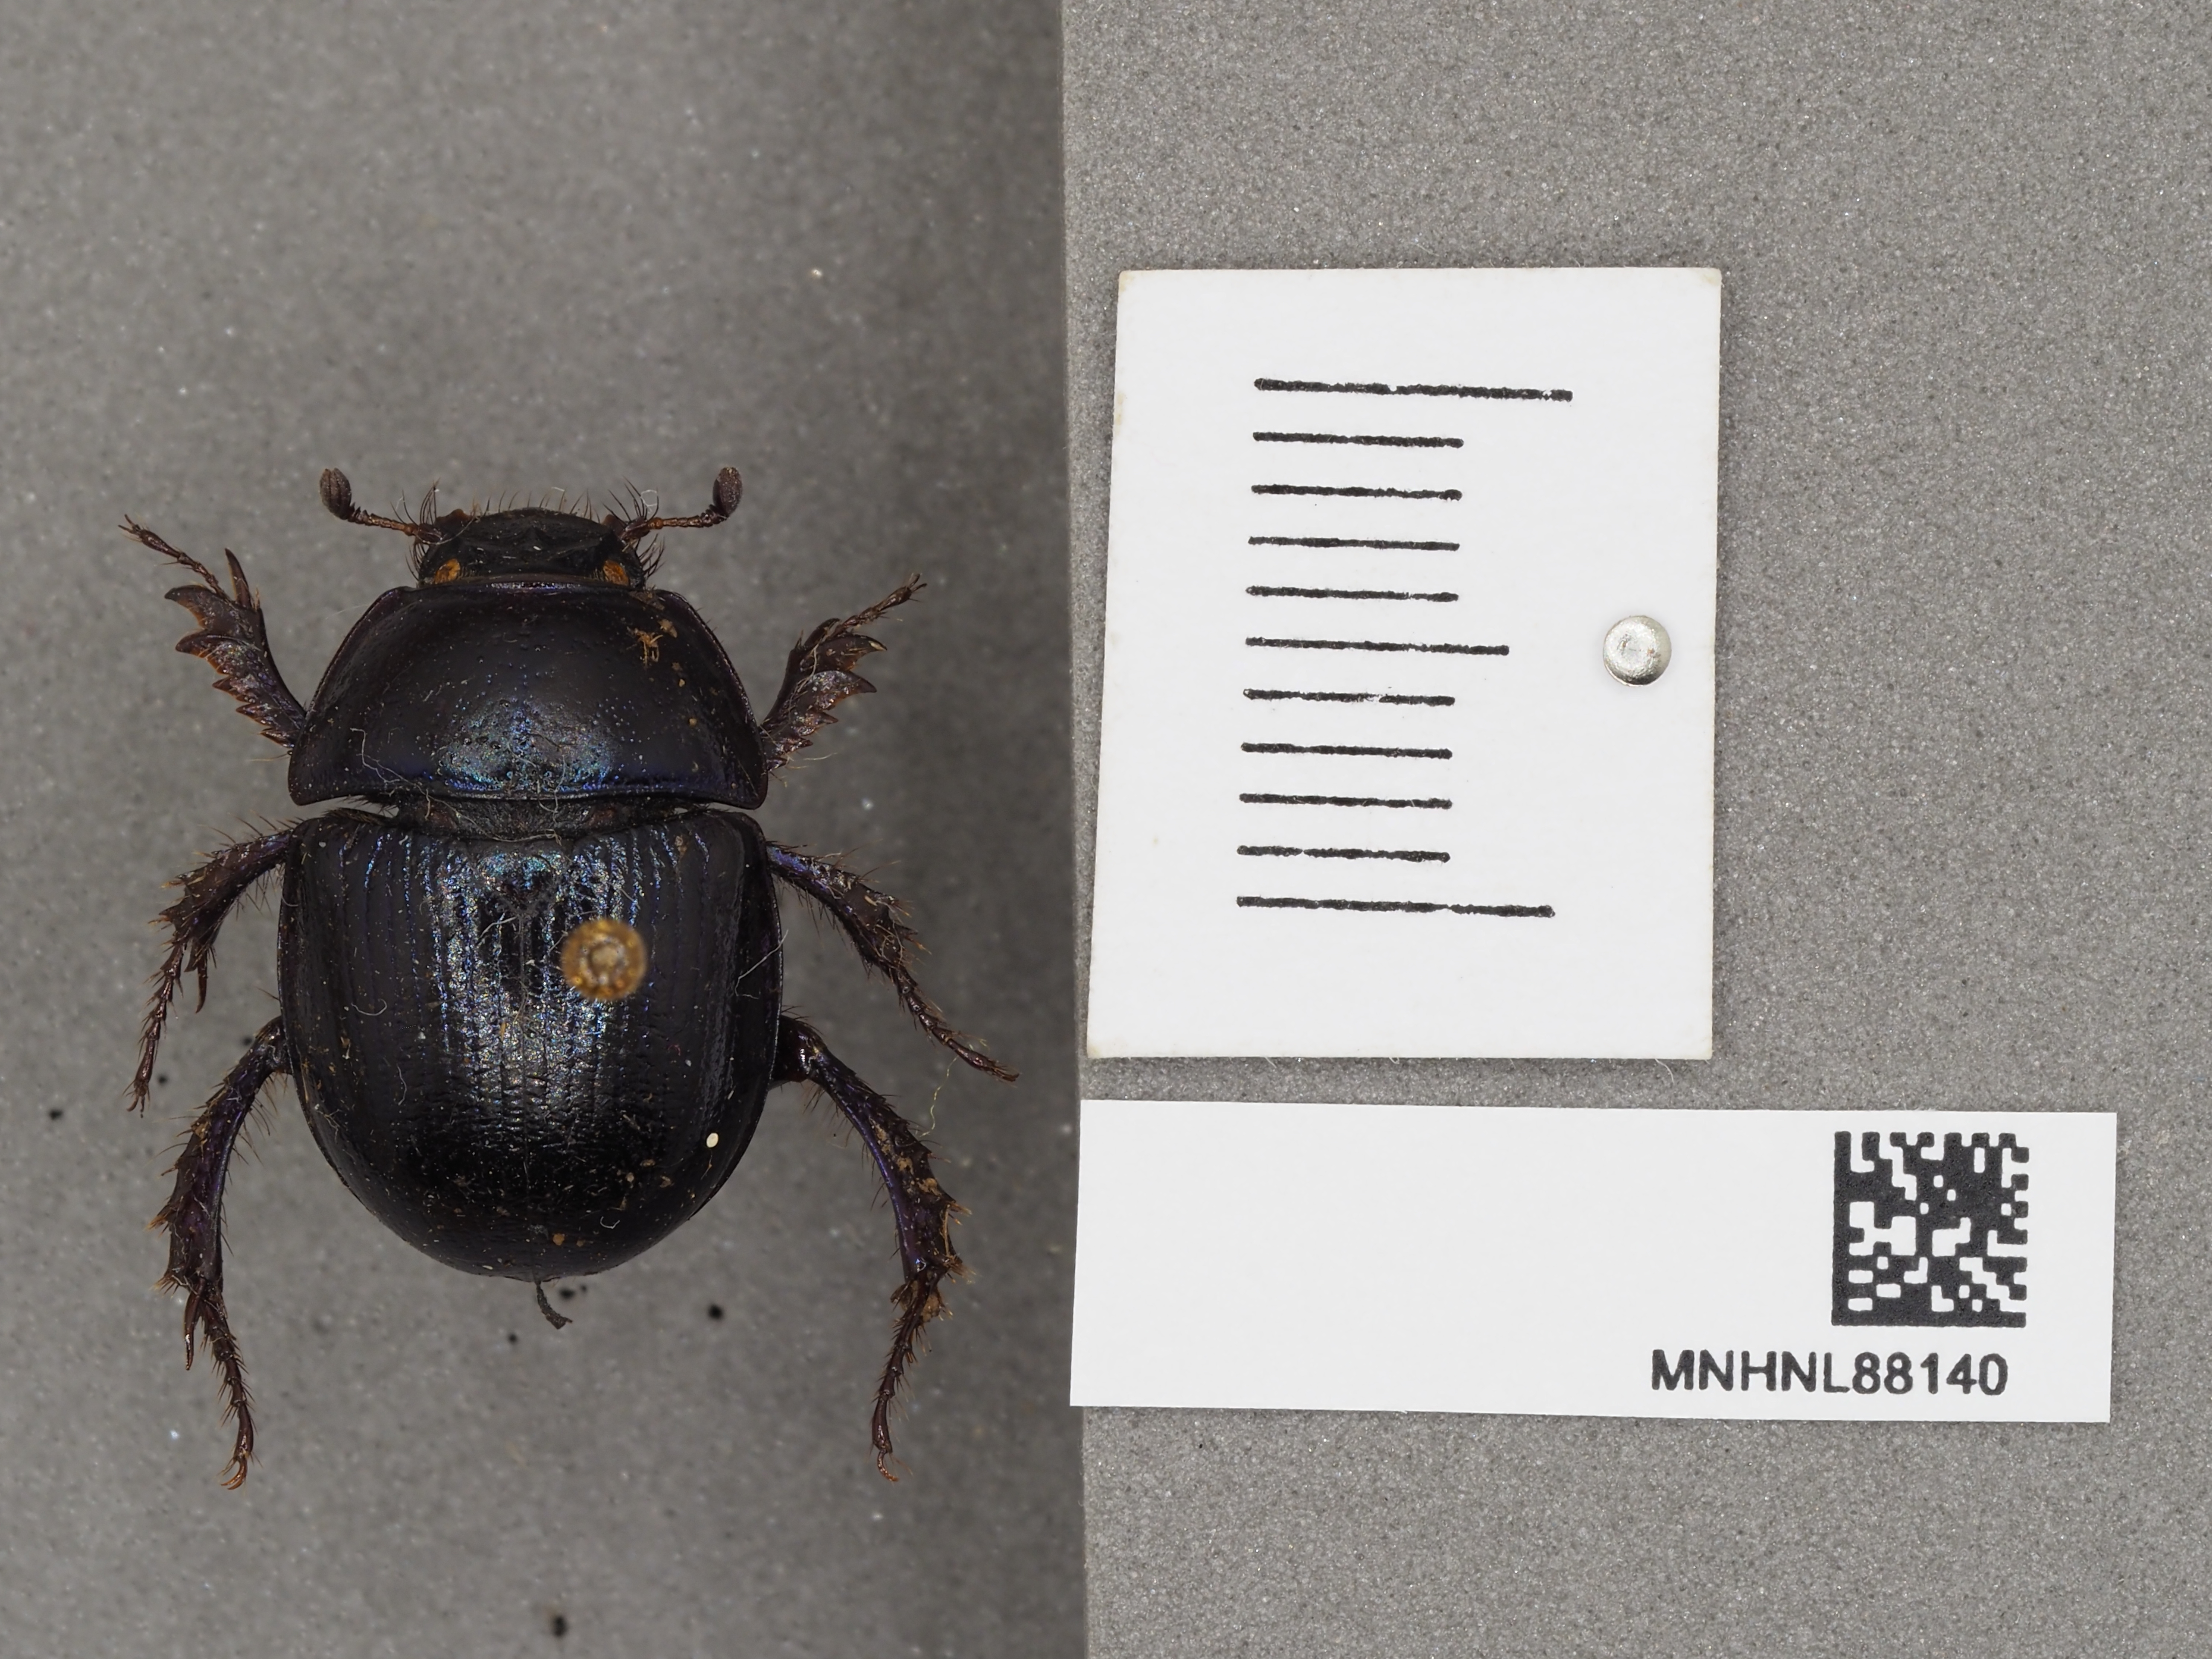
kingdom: Animalia
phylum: Arthropoda
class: Insecta
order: Coleoptera
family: Geotrupidae
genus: Anoplotrupes
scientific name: Anoplotrupes stercorosus
